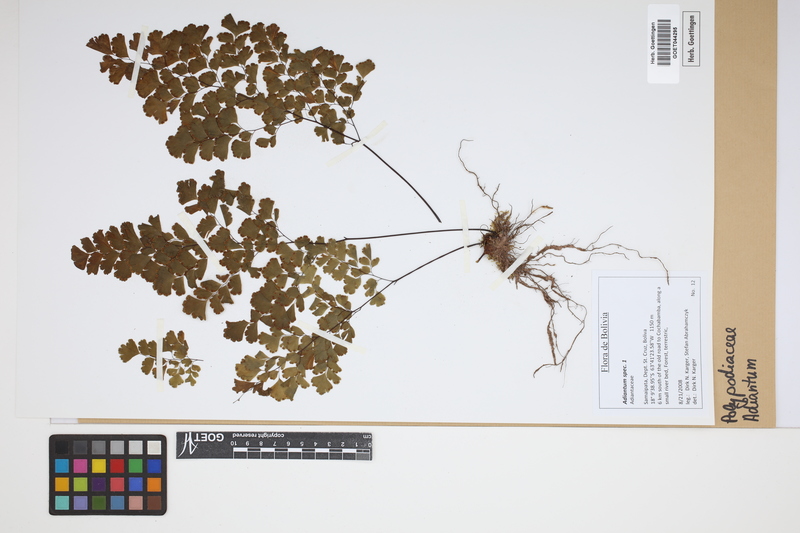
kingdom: Plantae
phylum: Tracheophyta
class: Polypodiopsida
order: Polypodiales
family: Pteridaceae
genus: Adiantum
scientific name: Adiantum
